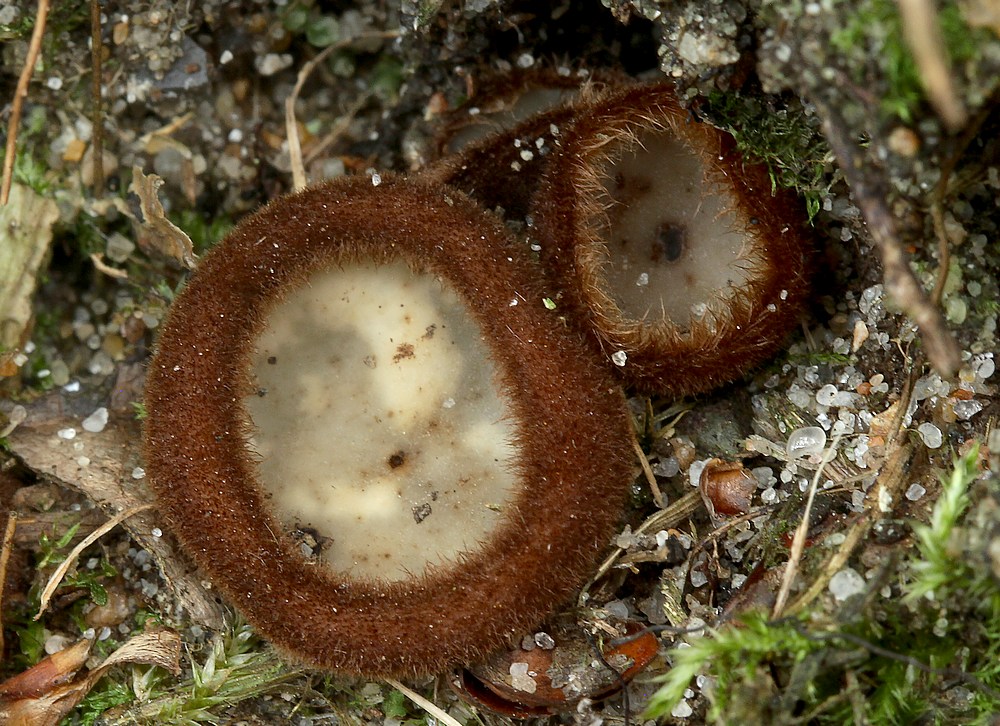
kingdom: Fungi
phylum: Ascomycota
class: Pezizomycetes
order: Pezizales
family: Pyronemataceae
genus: Humaria
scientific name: Humaria hemisphaerica
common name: halvkugleformet børstebæger
